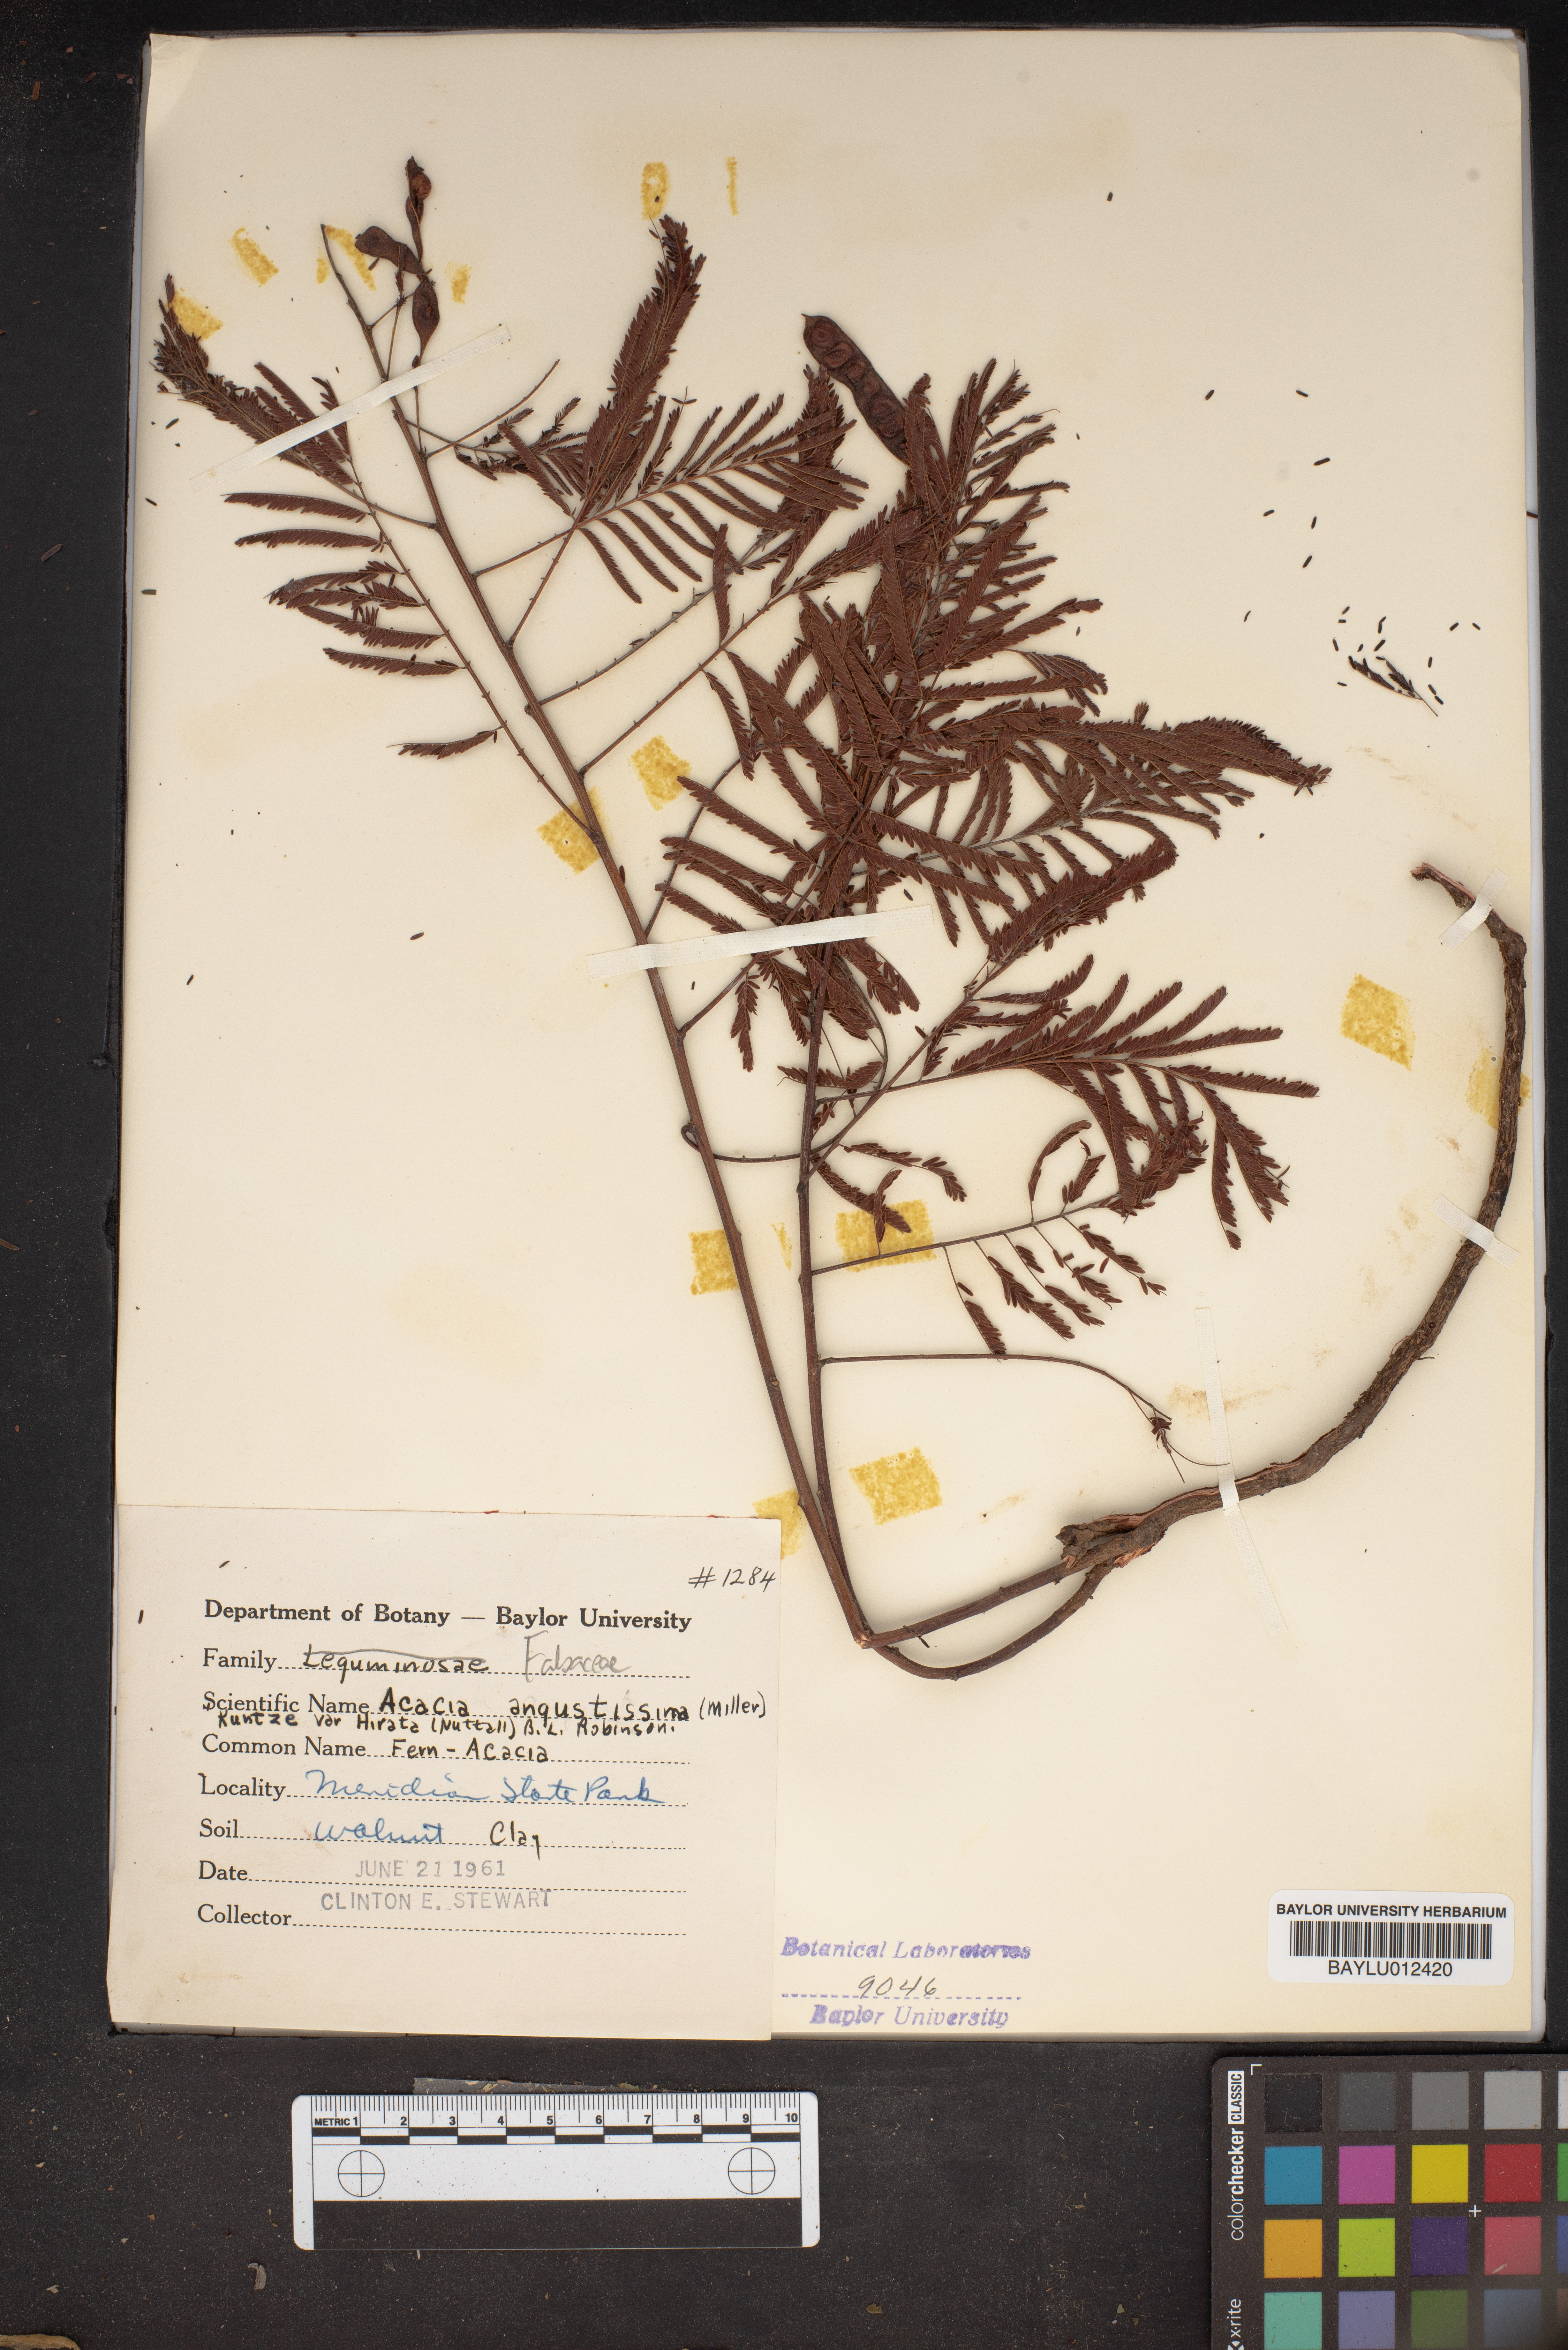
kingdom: Plantae
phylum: Tracheophyta
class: Magnoliopsida
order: Fabales
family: Fabaceae
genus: Acaciella
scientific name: Acaciella angustissima
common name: Prairie acacia
